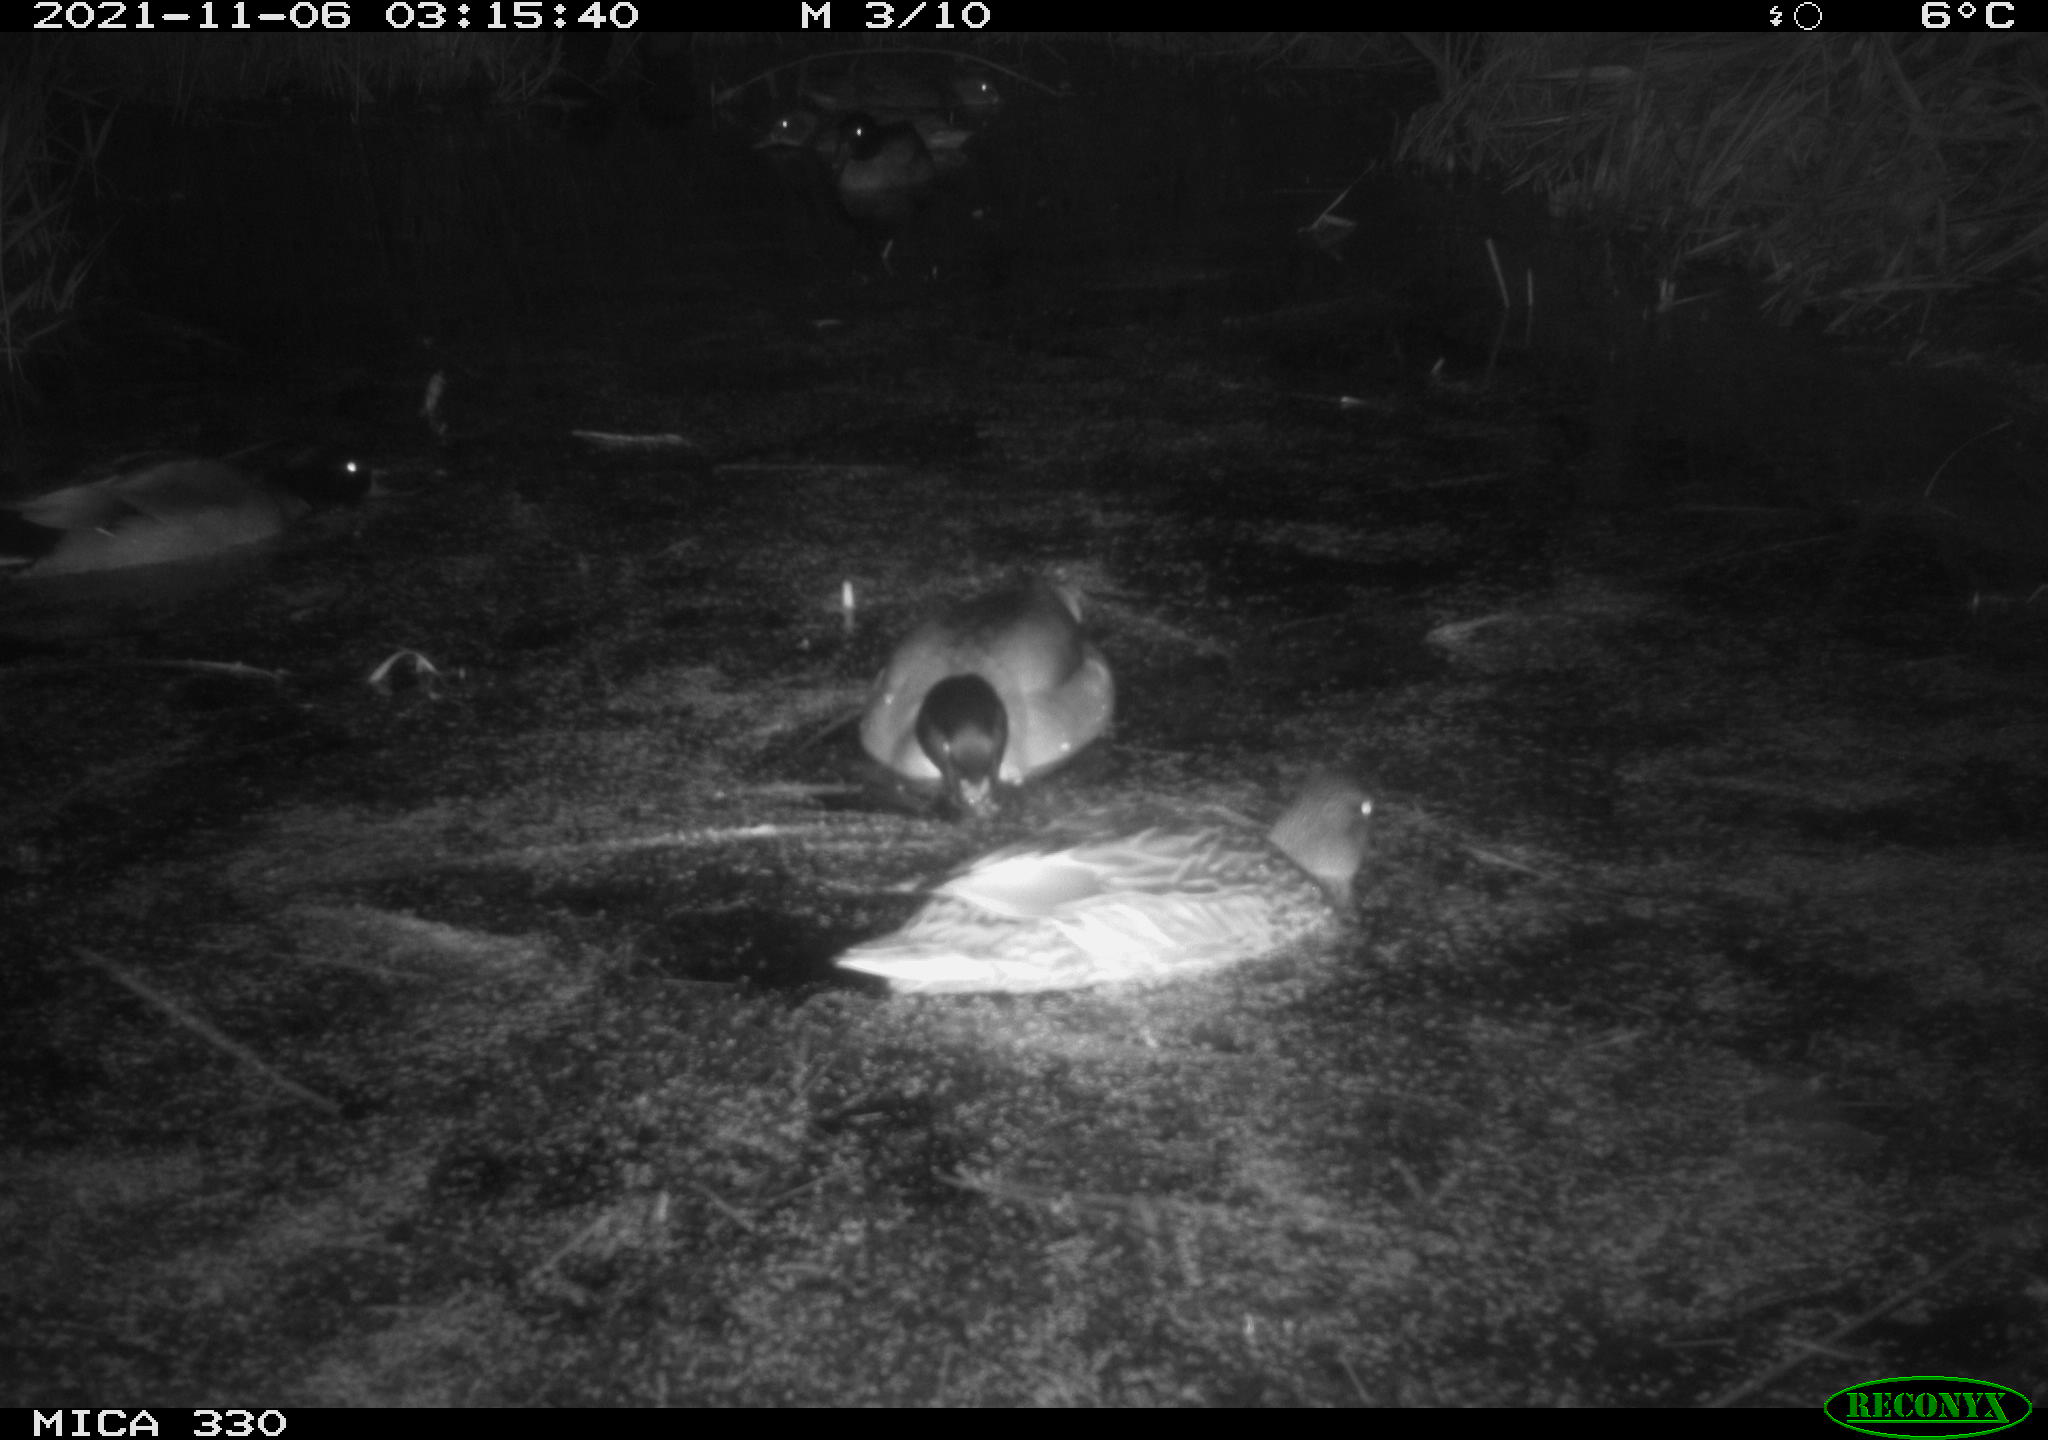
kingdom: Animalia
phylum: Chordata
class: Aves
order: Anseriformes
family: Anatidae
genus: Anas
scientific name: Anas platyrhynchos
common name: Mallard
